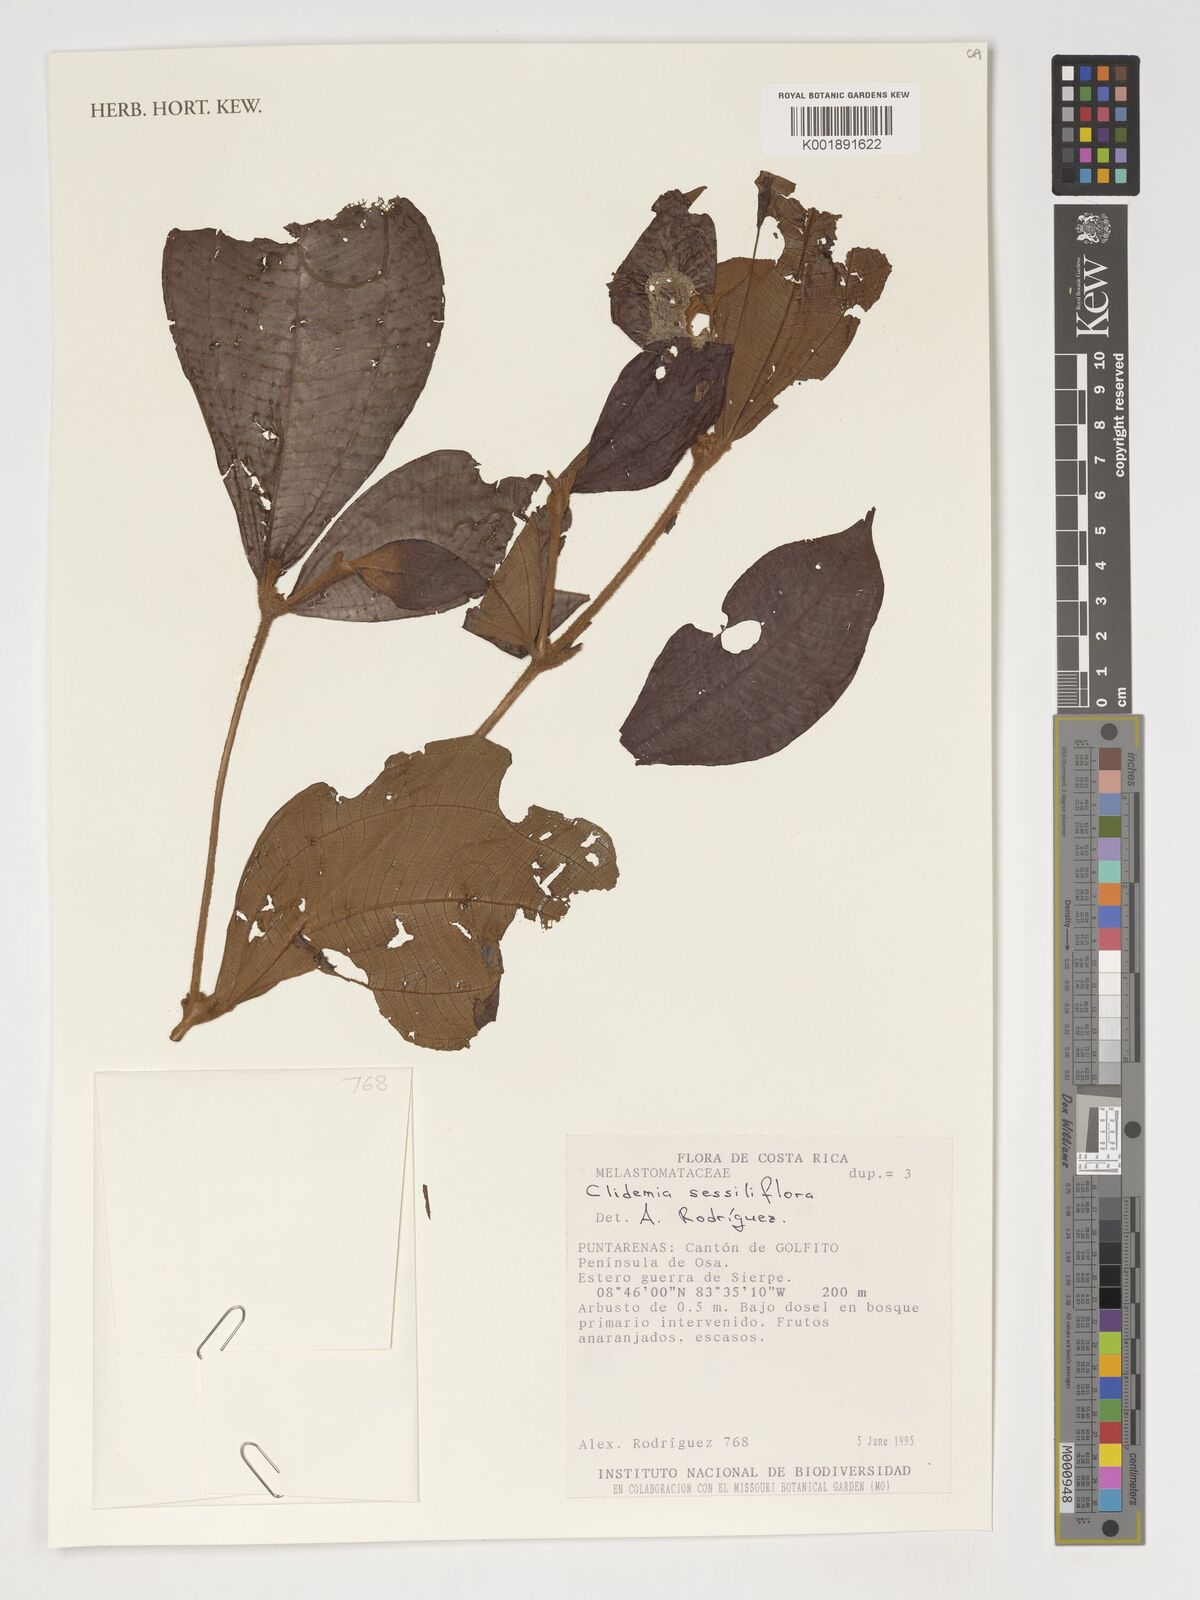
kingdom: Plantae
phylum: Tracheophyta
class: Magnoliopsida
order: Myrtales
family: Melastomataceae
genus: Miconia
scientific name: Miconia sessiliflora
